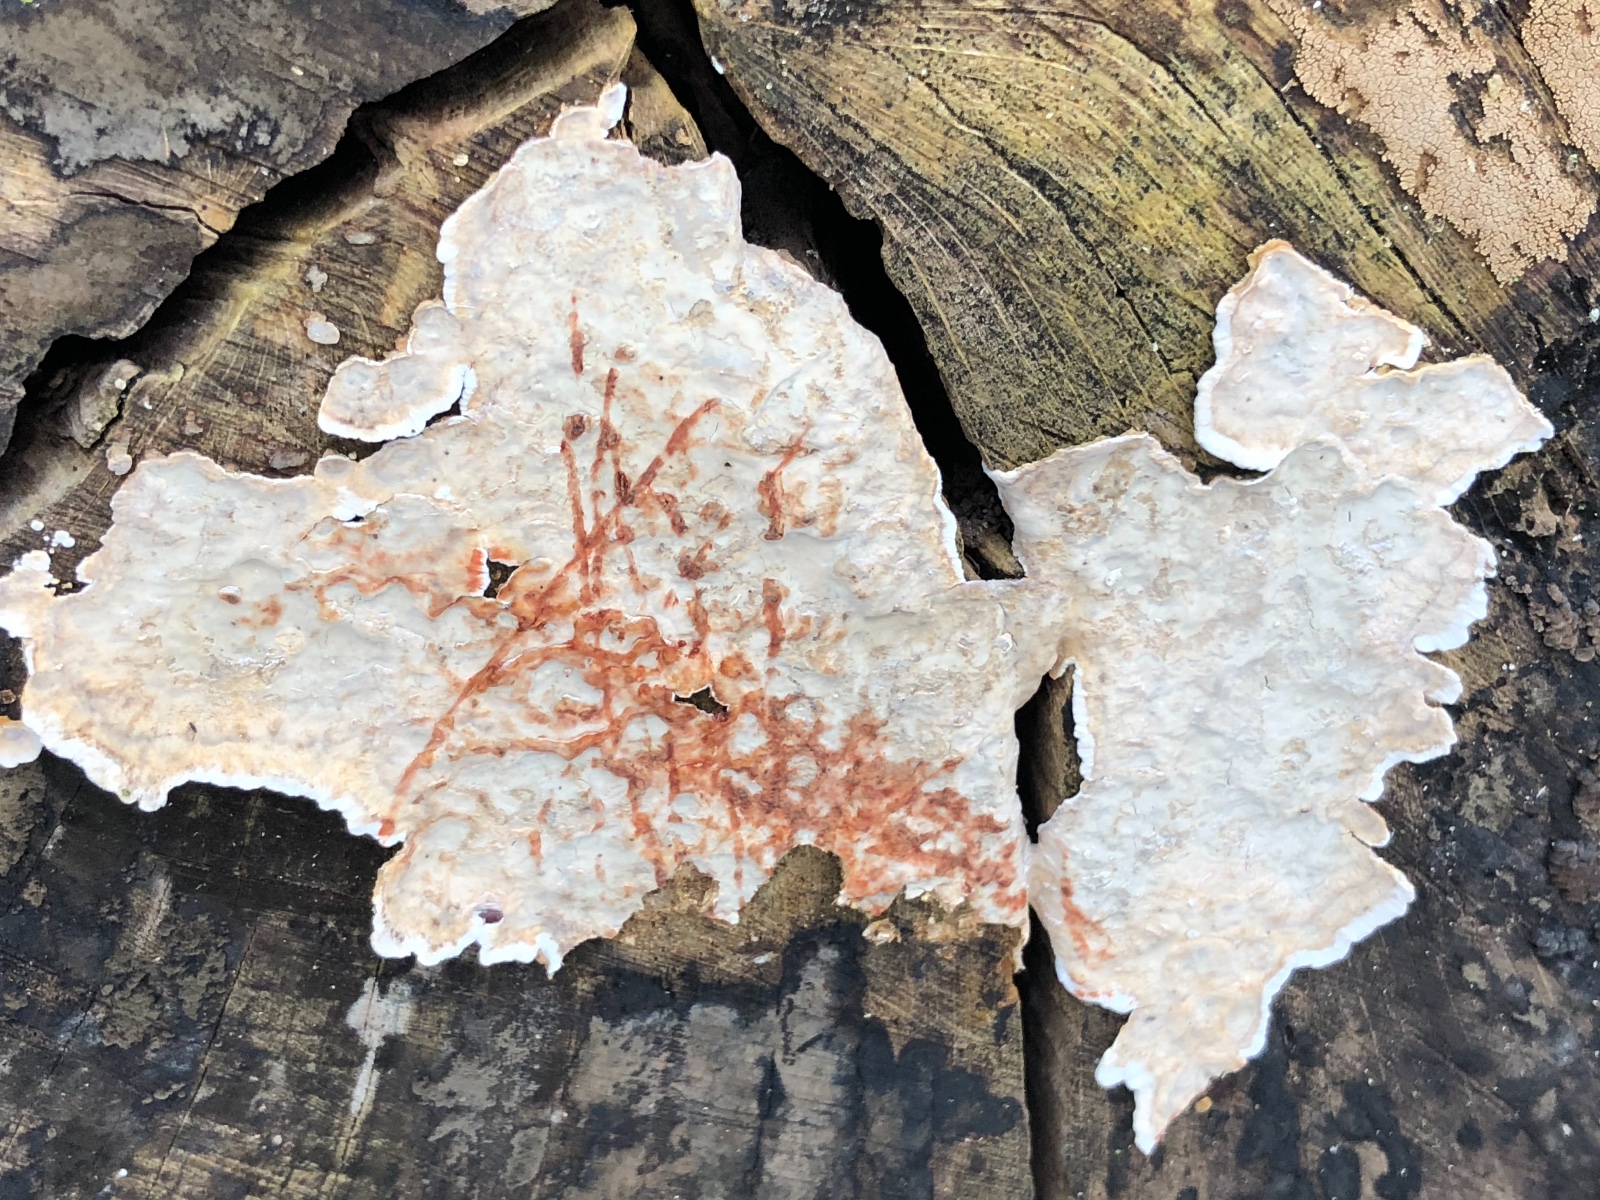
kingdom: Fungi
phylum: Basidiomycota
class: Agaricomycetes
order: Russulales
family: Stereaceae
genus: Stereum
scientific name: Stereum rugosum
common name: rynket lædersvamp
